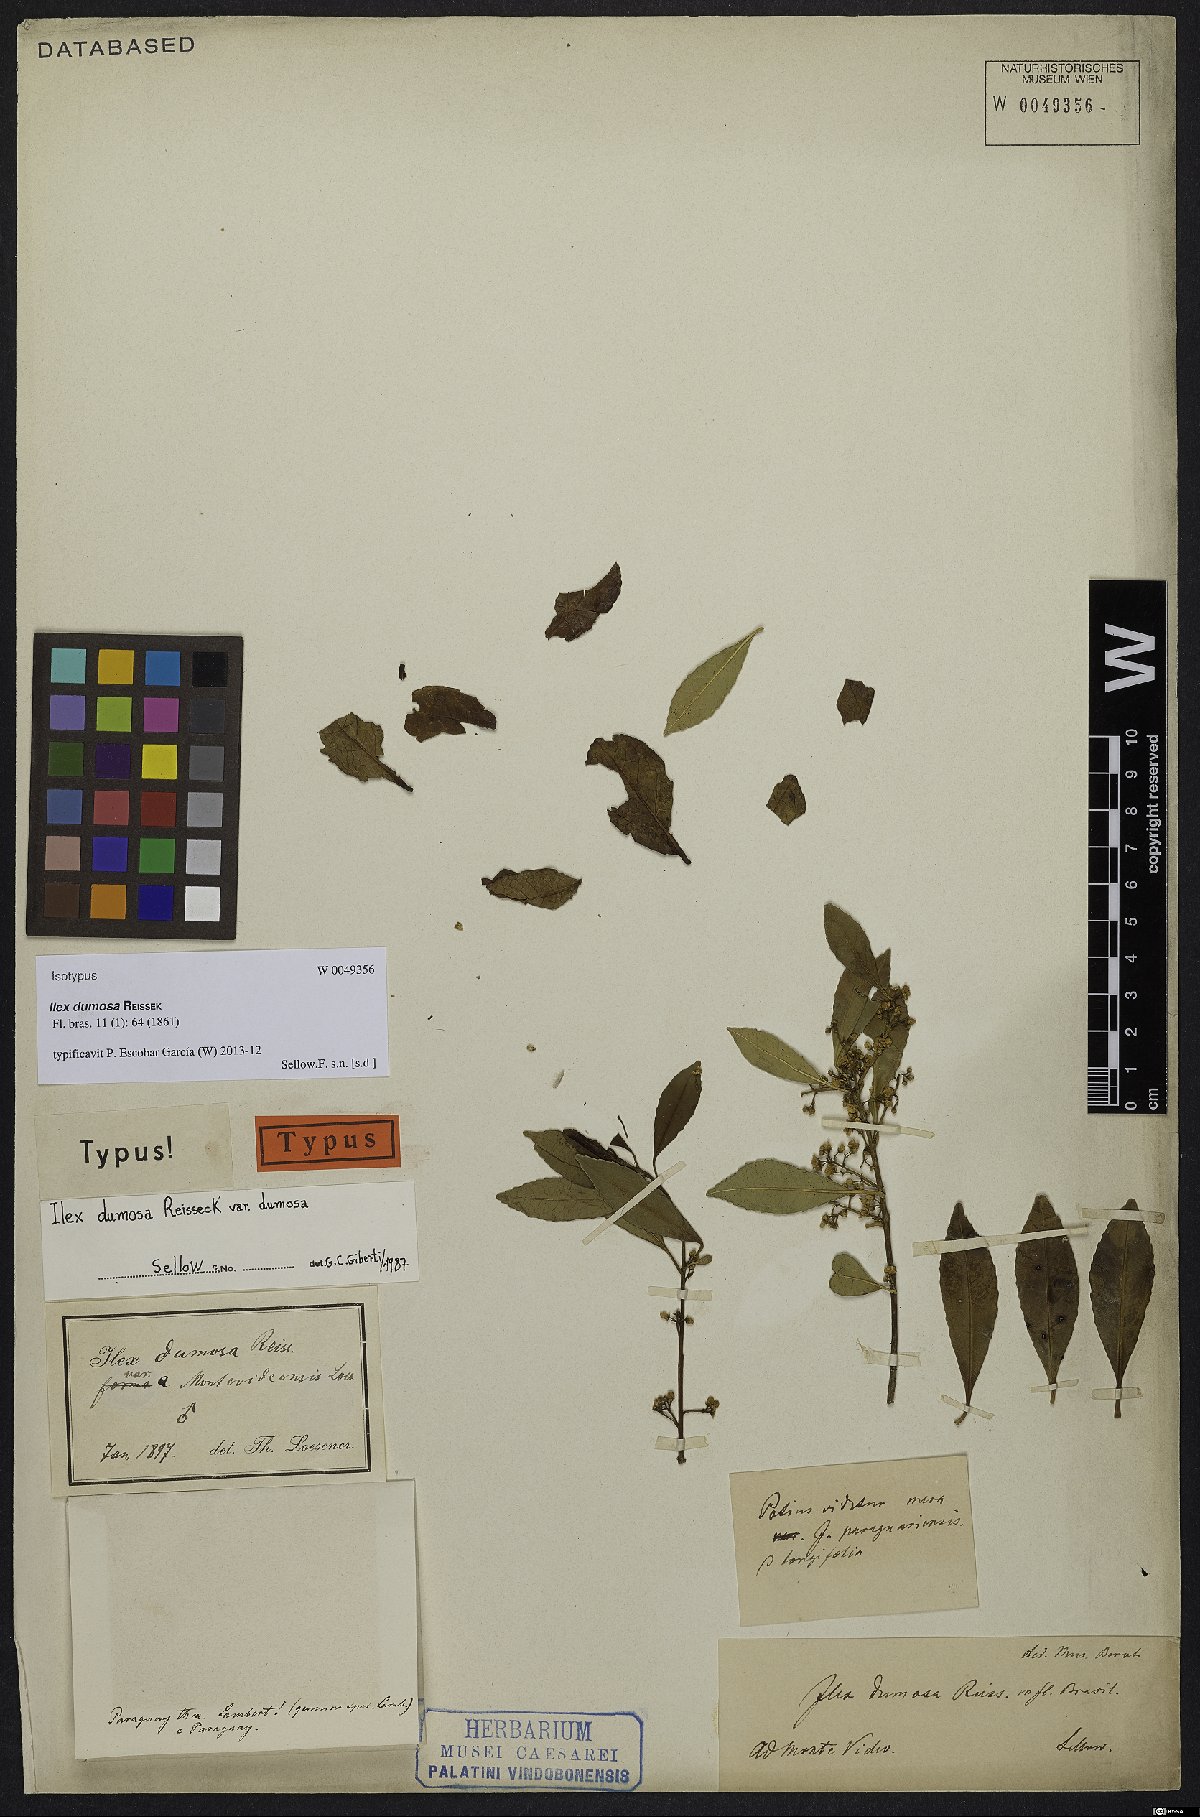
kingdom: Plantae
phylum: Tracheophyta
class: Magnoliopsida
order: Aquifoliales
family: Aquifoliaceae
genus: Ilex
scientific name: Ilex dumosa
